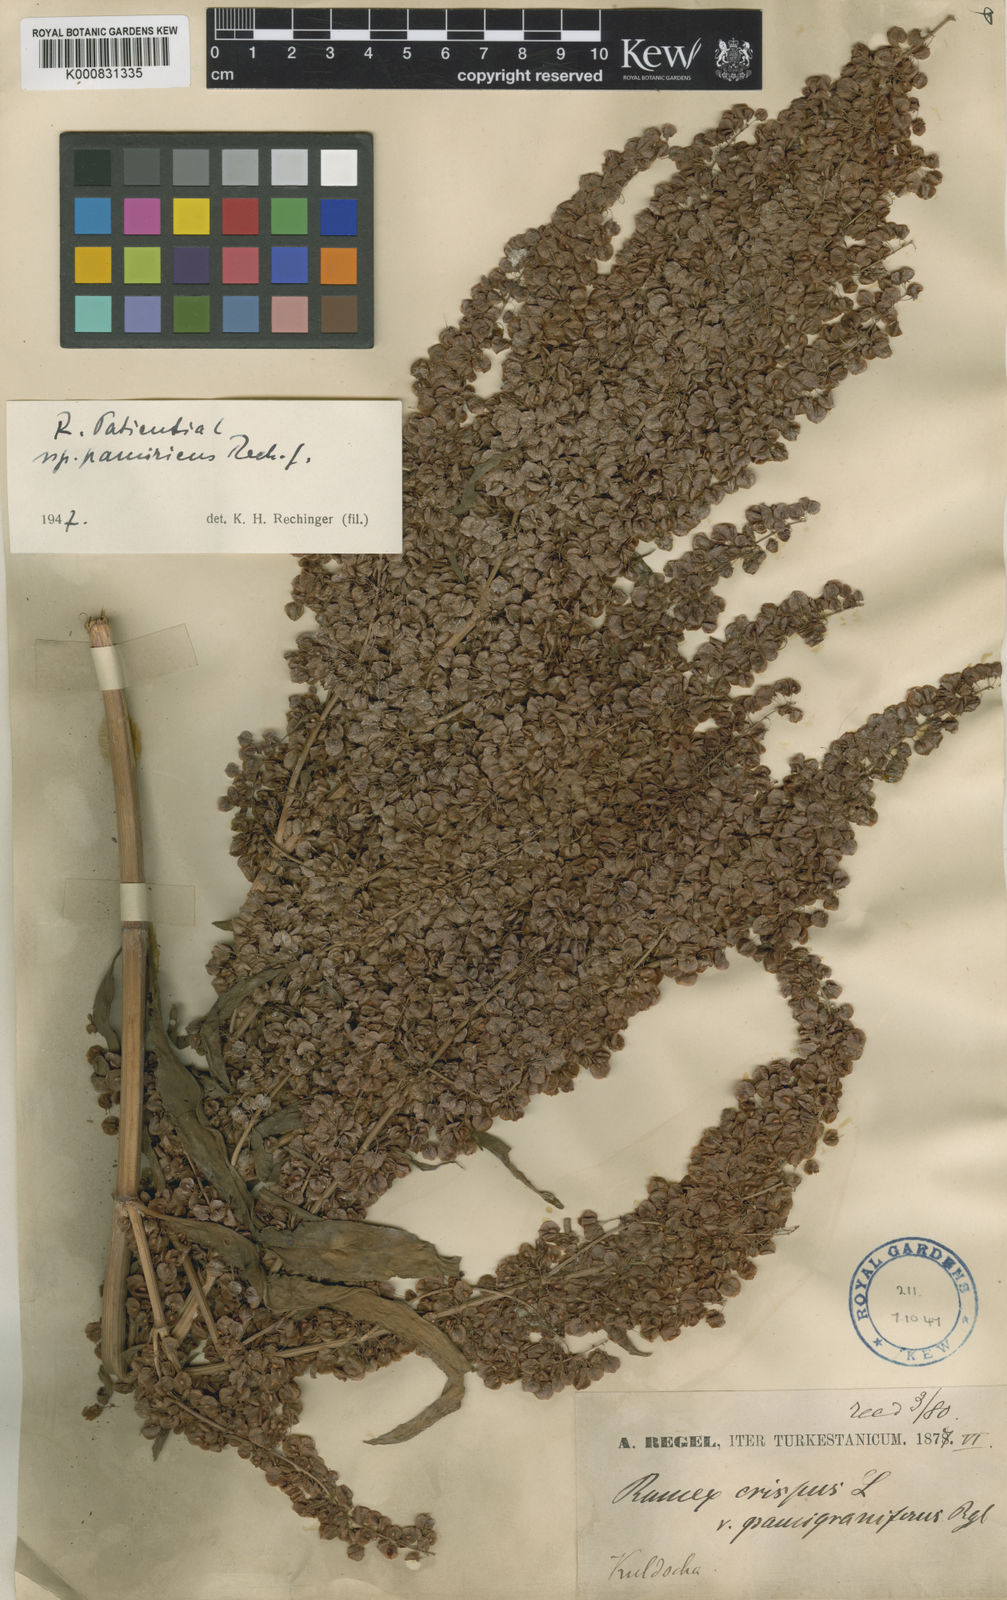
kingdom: Plantae
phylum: Tracheophyta
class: Magnoliopsida
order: Caryophyllales
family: Polygonaceae
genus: Rumex
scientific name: Rumex patientia
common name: Patience dock
